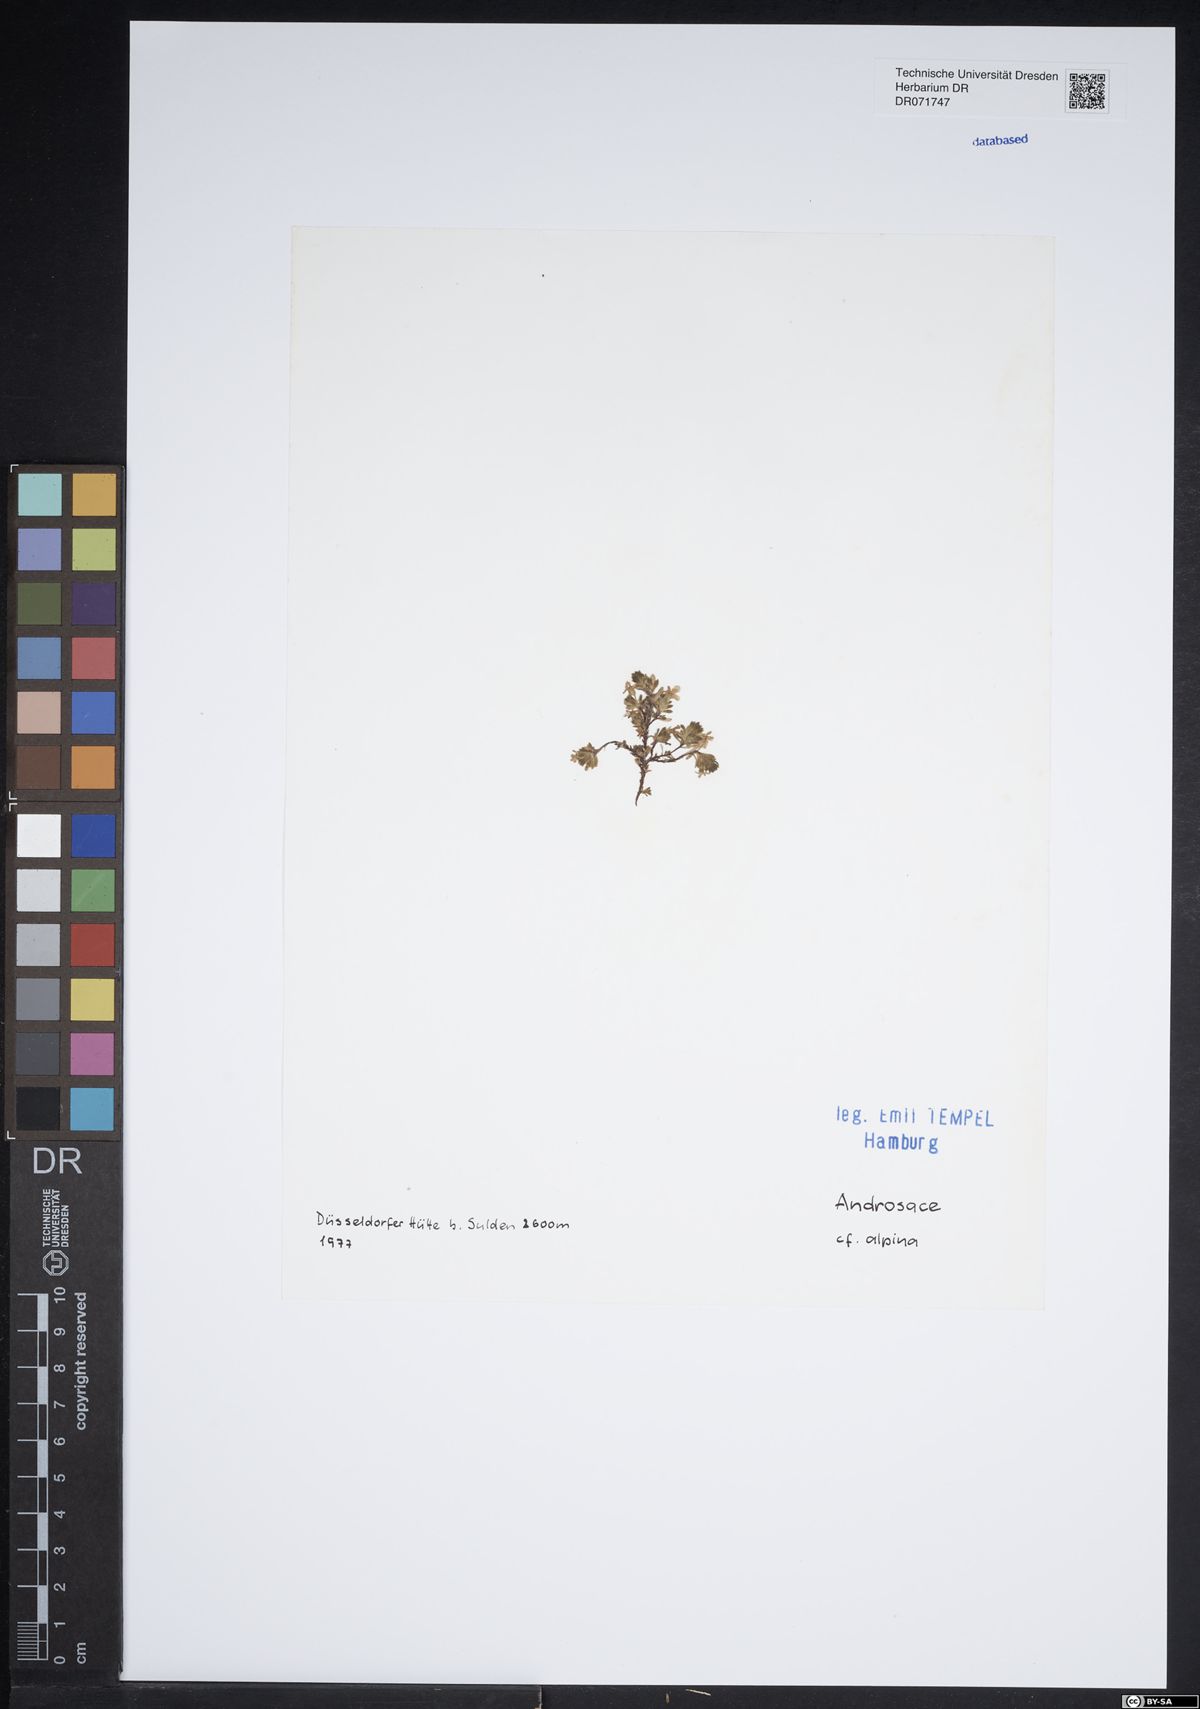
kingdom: Plantae
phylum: Tracheophyta
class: Magnoliopsida
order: Ericales
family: Primulaceae
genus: Androsace
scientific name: Androsace alpina
